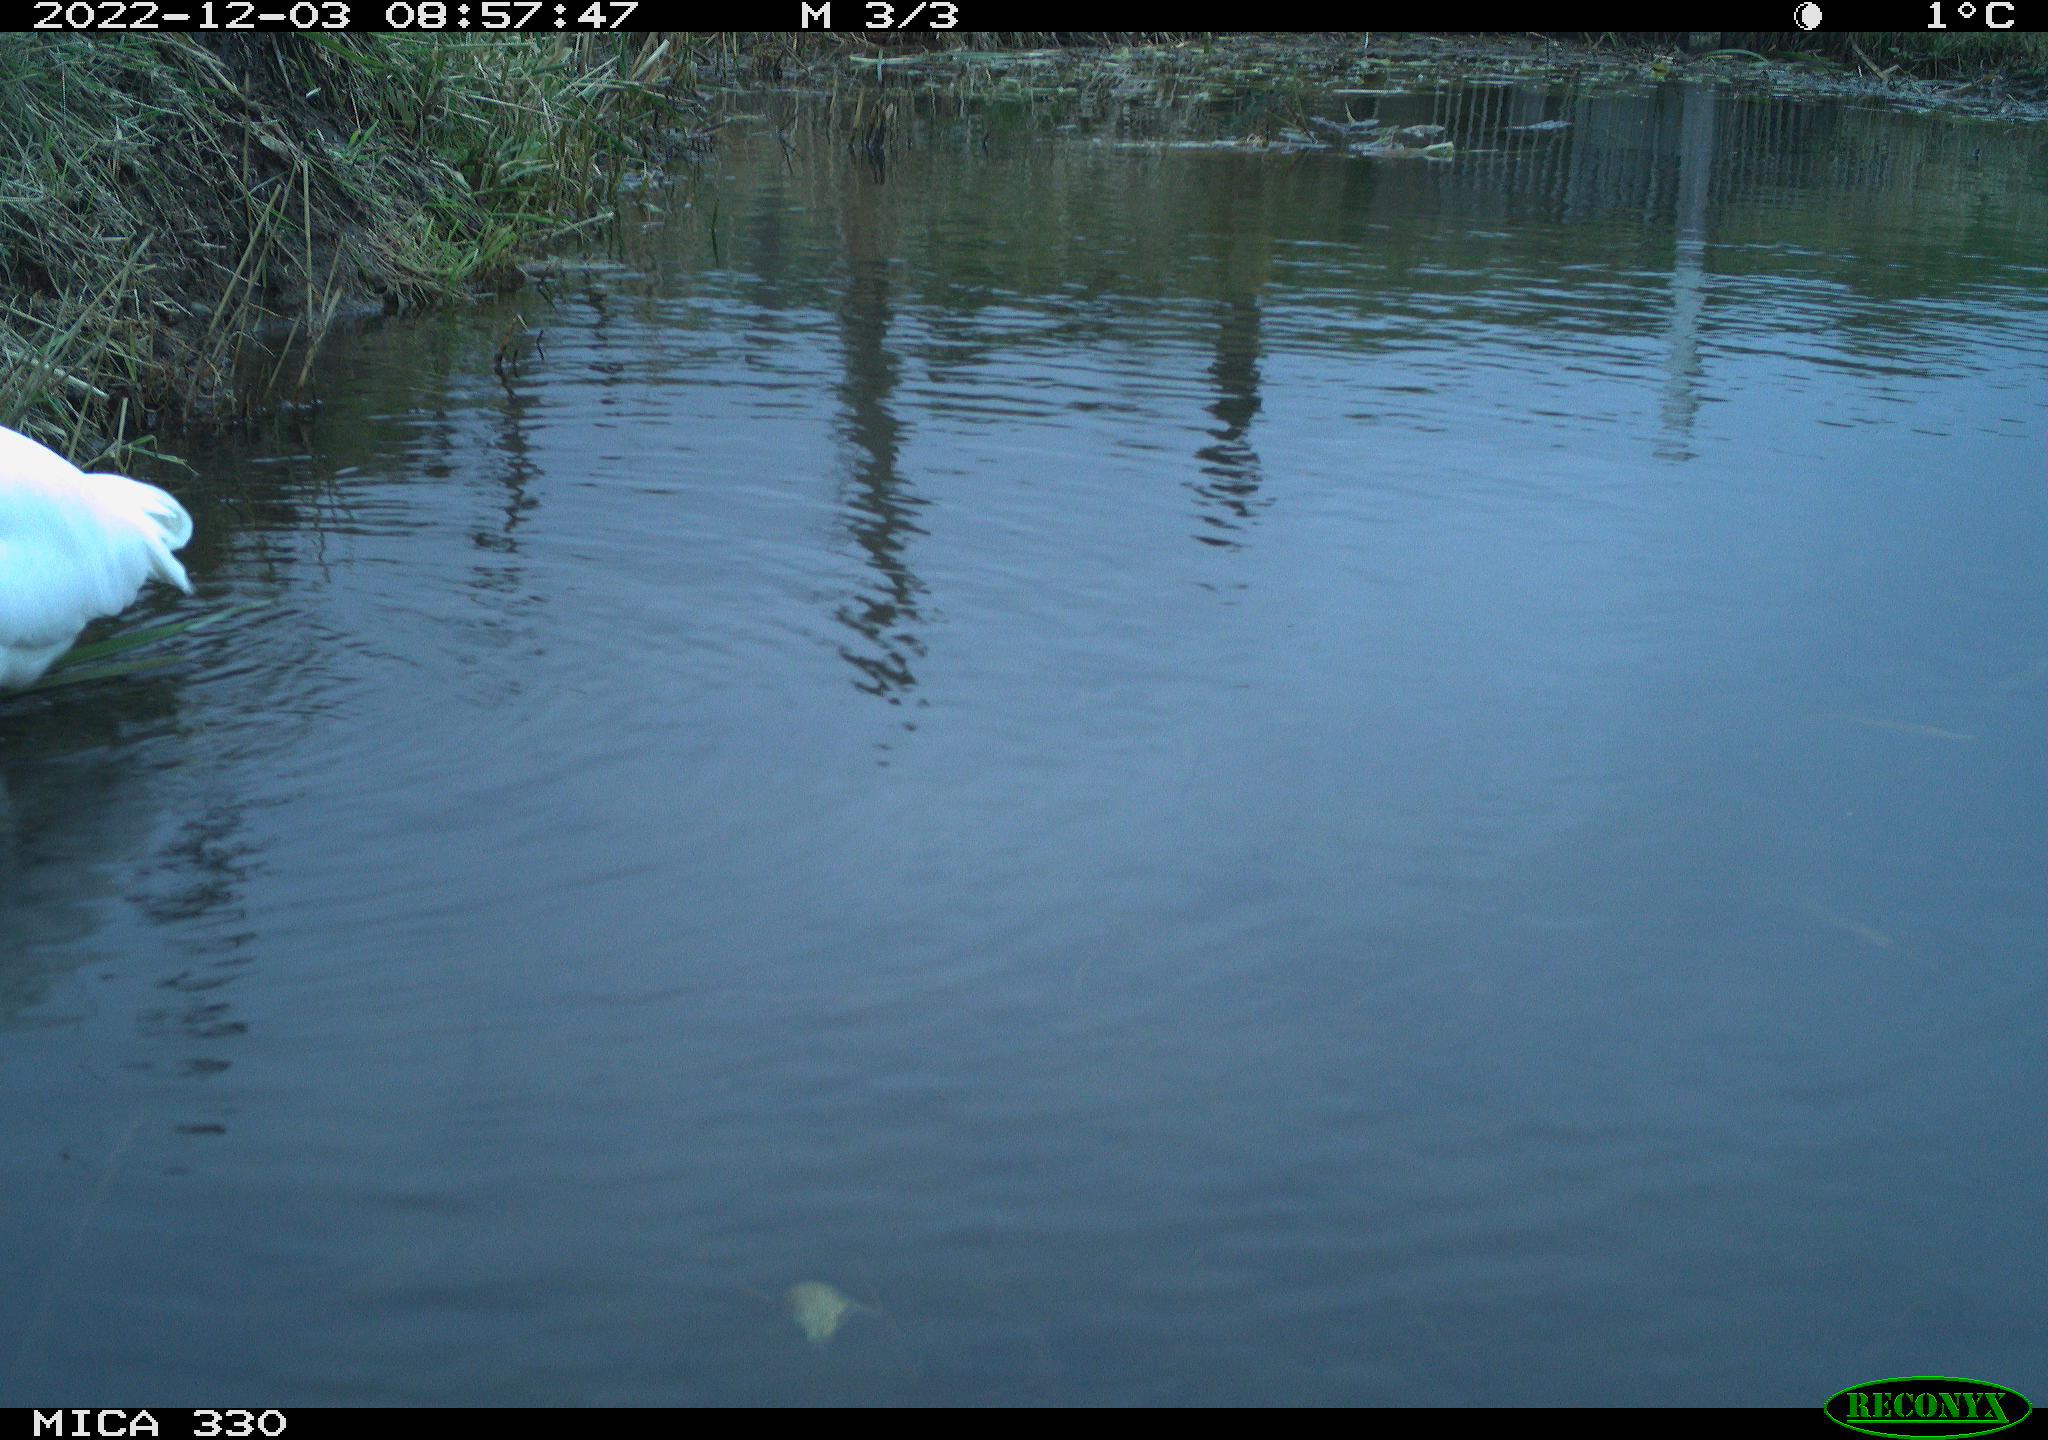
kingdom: Animalia
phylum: Chordata
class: Aves
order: Pelecaniformes
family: Ardeidae
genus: Ardea
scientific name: Ardea alba
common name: Great egret
